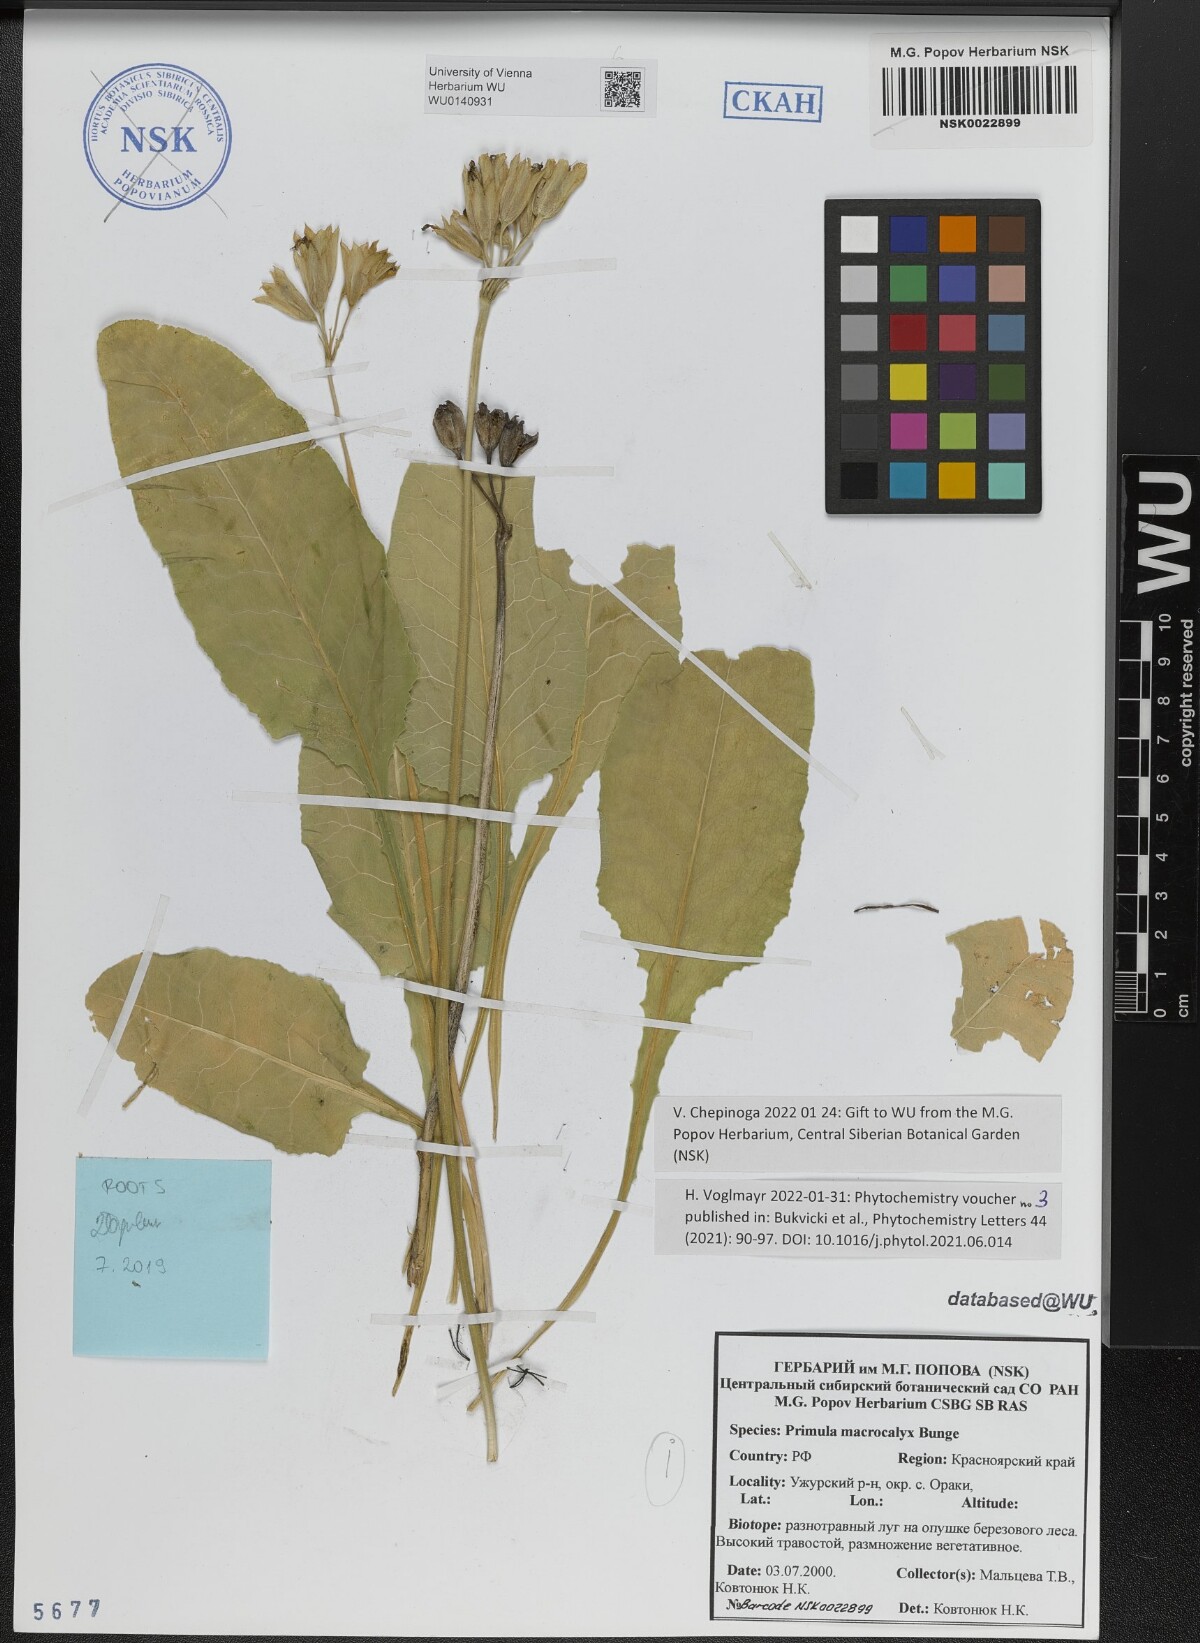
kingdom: Plantae
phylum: Tracheophyta
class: Magnoliopsida
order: Ericales
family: Primulaceae
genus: Primula
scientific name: Primula veris
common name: Cowslip
